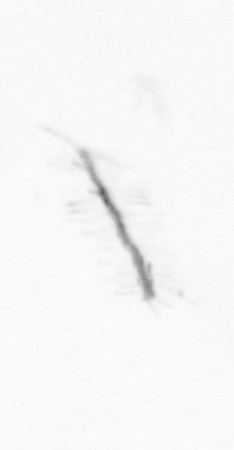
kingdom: Chromista
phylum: Ochrophyta
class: Bacillariophyceae
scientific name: Bacillariophyceae
